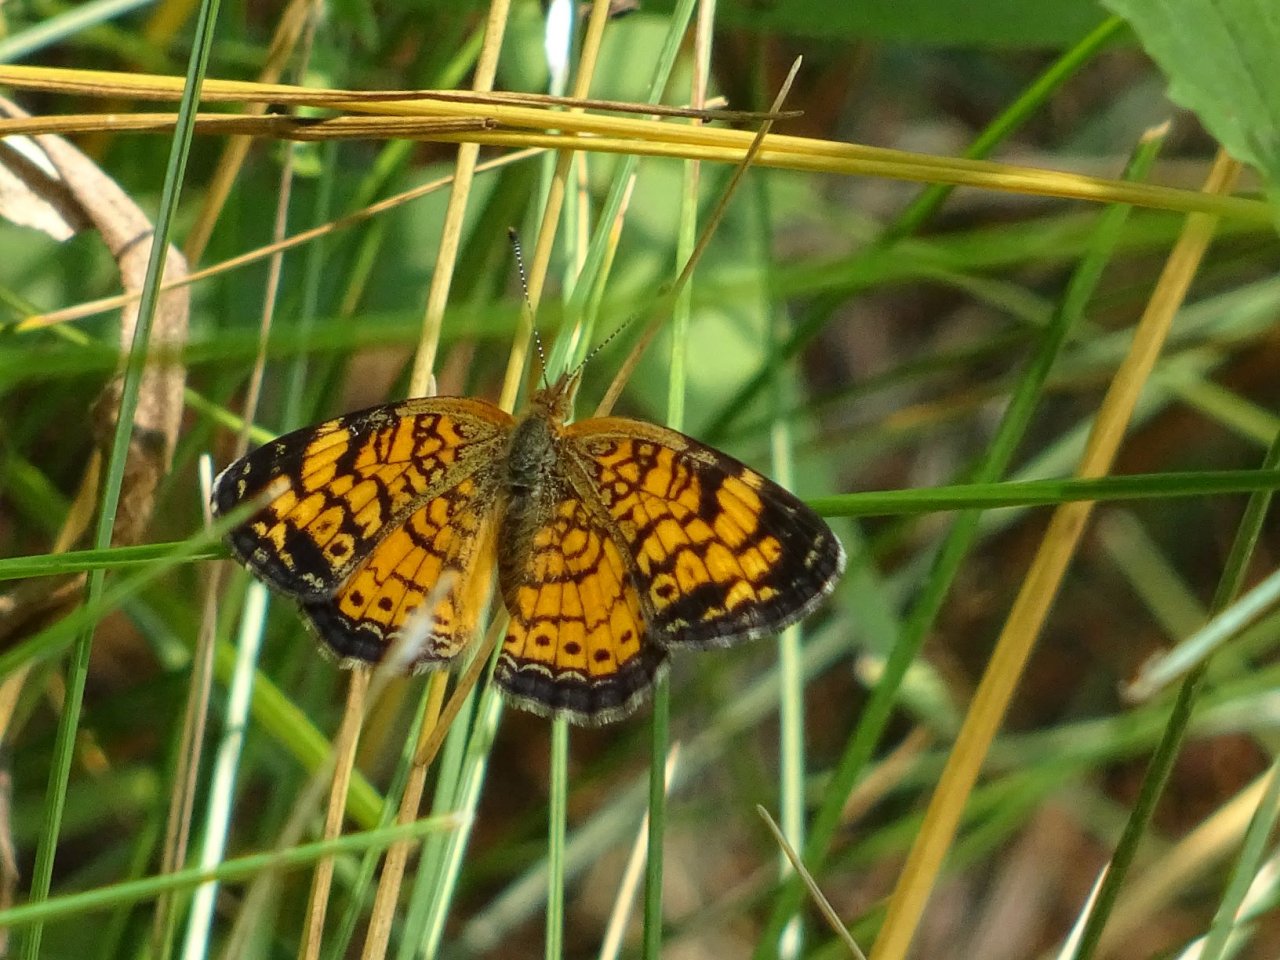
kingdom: Animalia
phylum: Arthropoda
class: Insecta
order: Lepidoptera
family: Nymphalidae
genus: Phyciodes
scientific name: Phyciodes tharos
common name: Pearl Crescent
